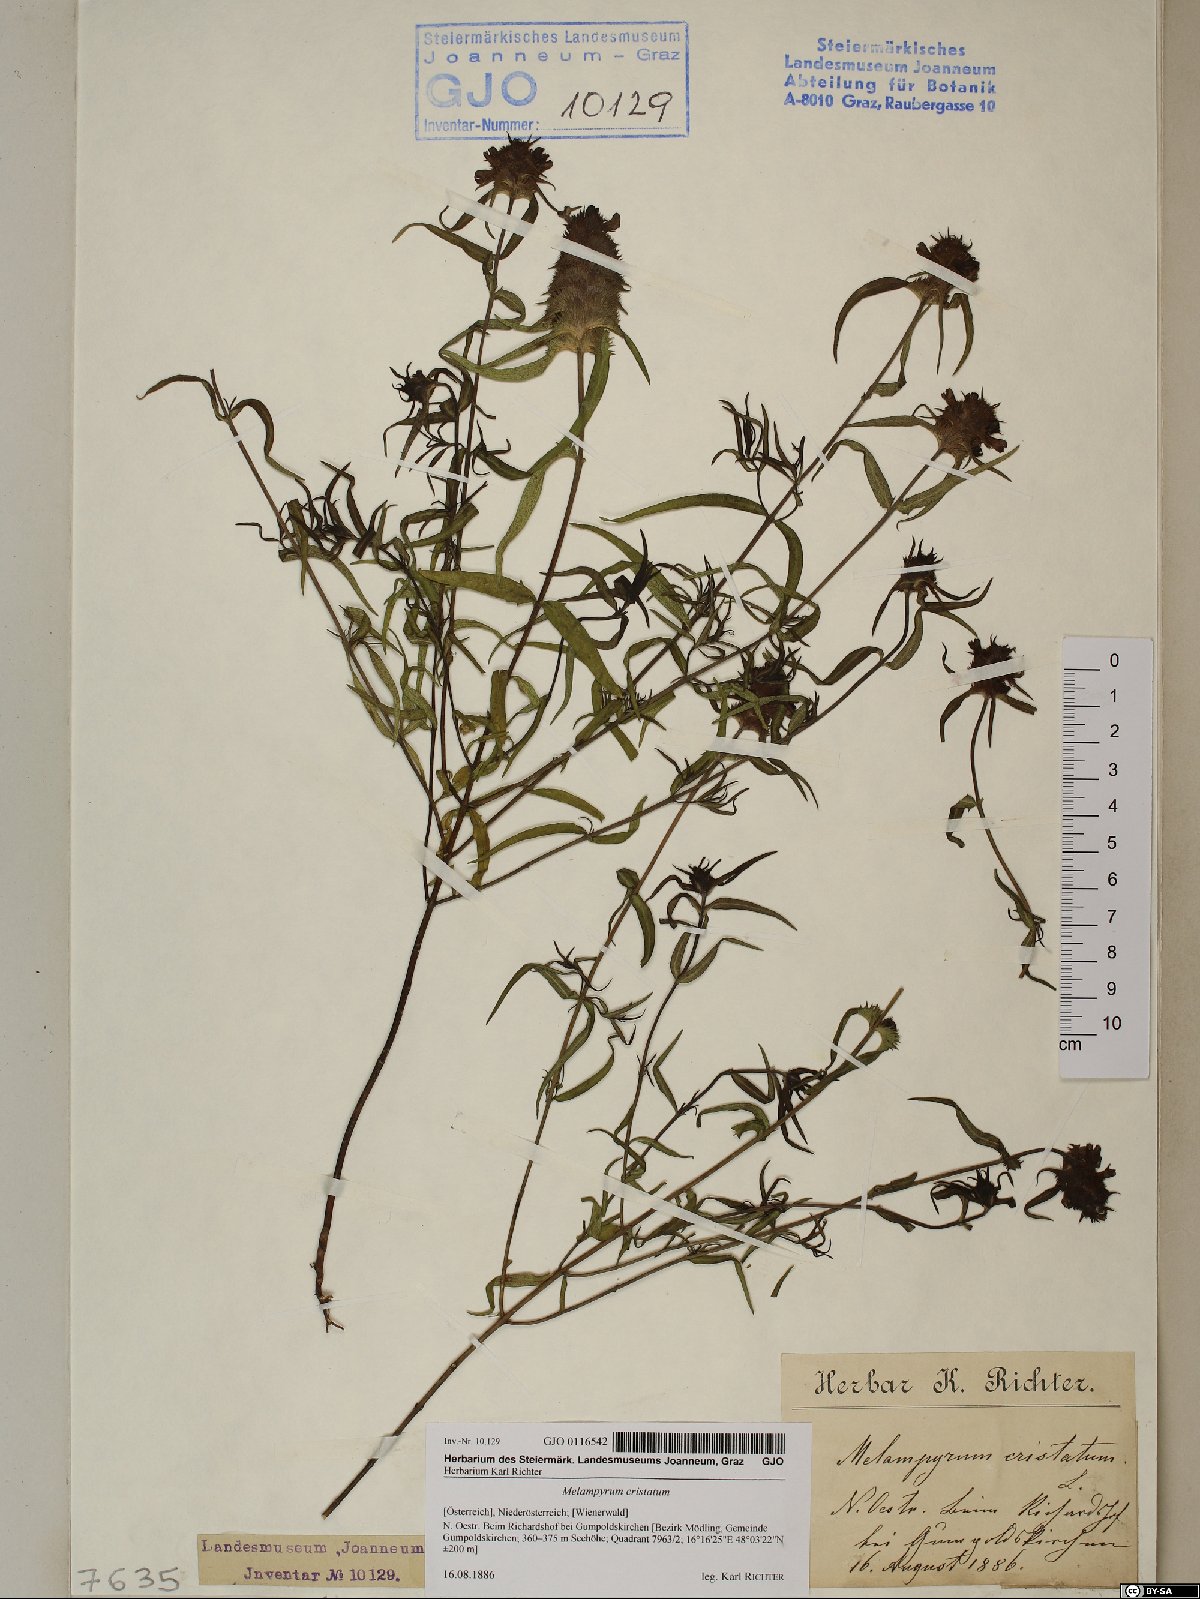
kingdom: Plantae
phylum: Tracheophyta
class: Magnoliopsida
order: Lamiales
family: Orobanchaceae
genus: Melampyrum
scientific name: Melampyrum cristatum
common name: Crested cow-wheat
